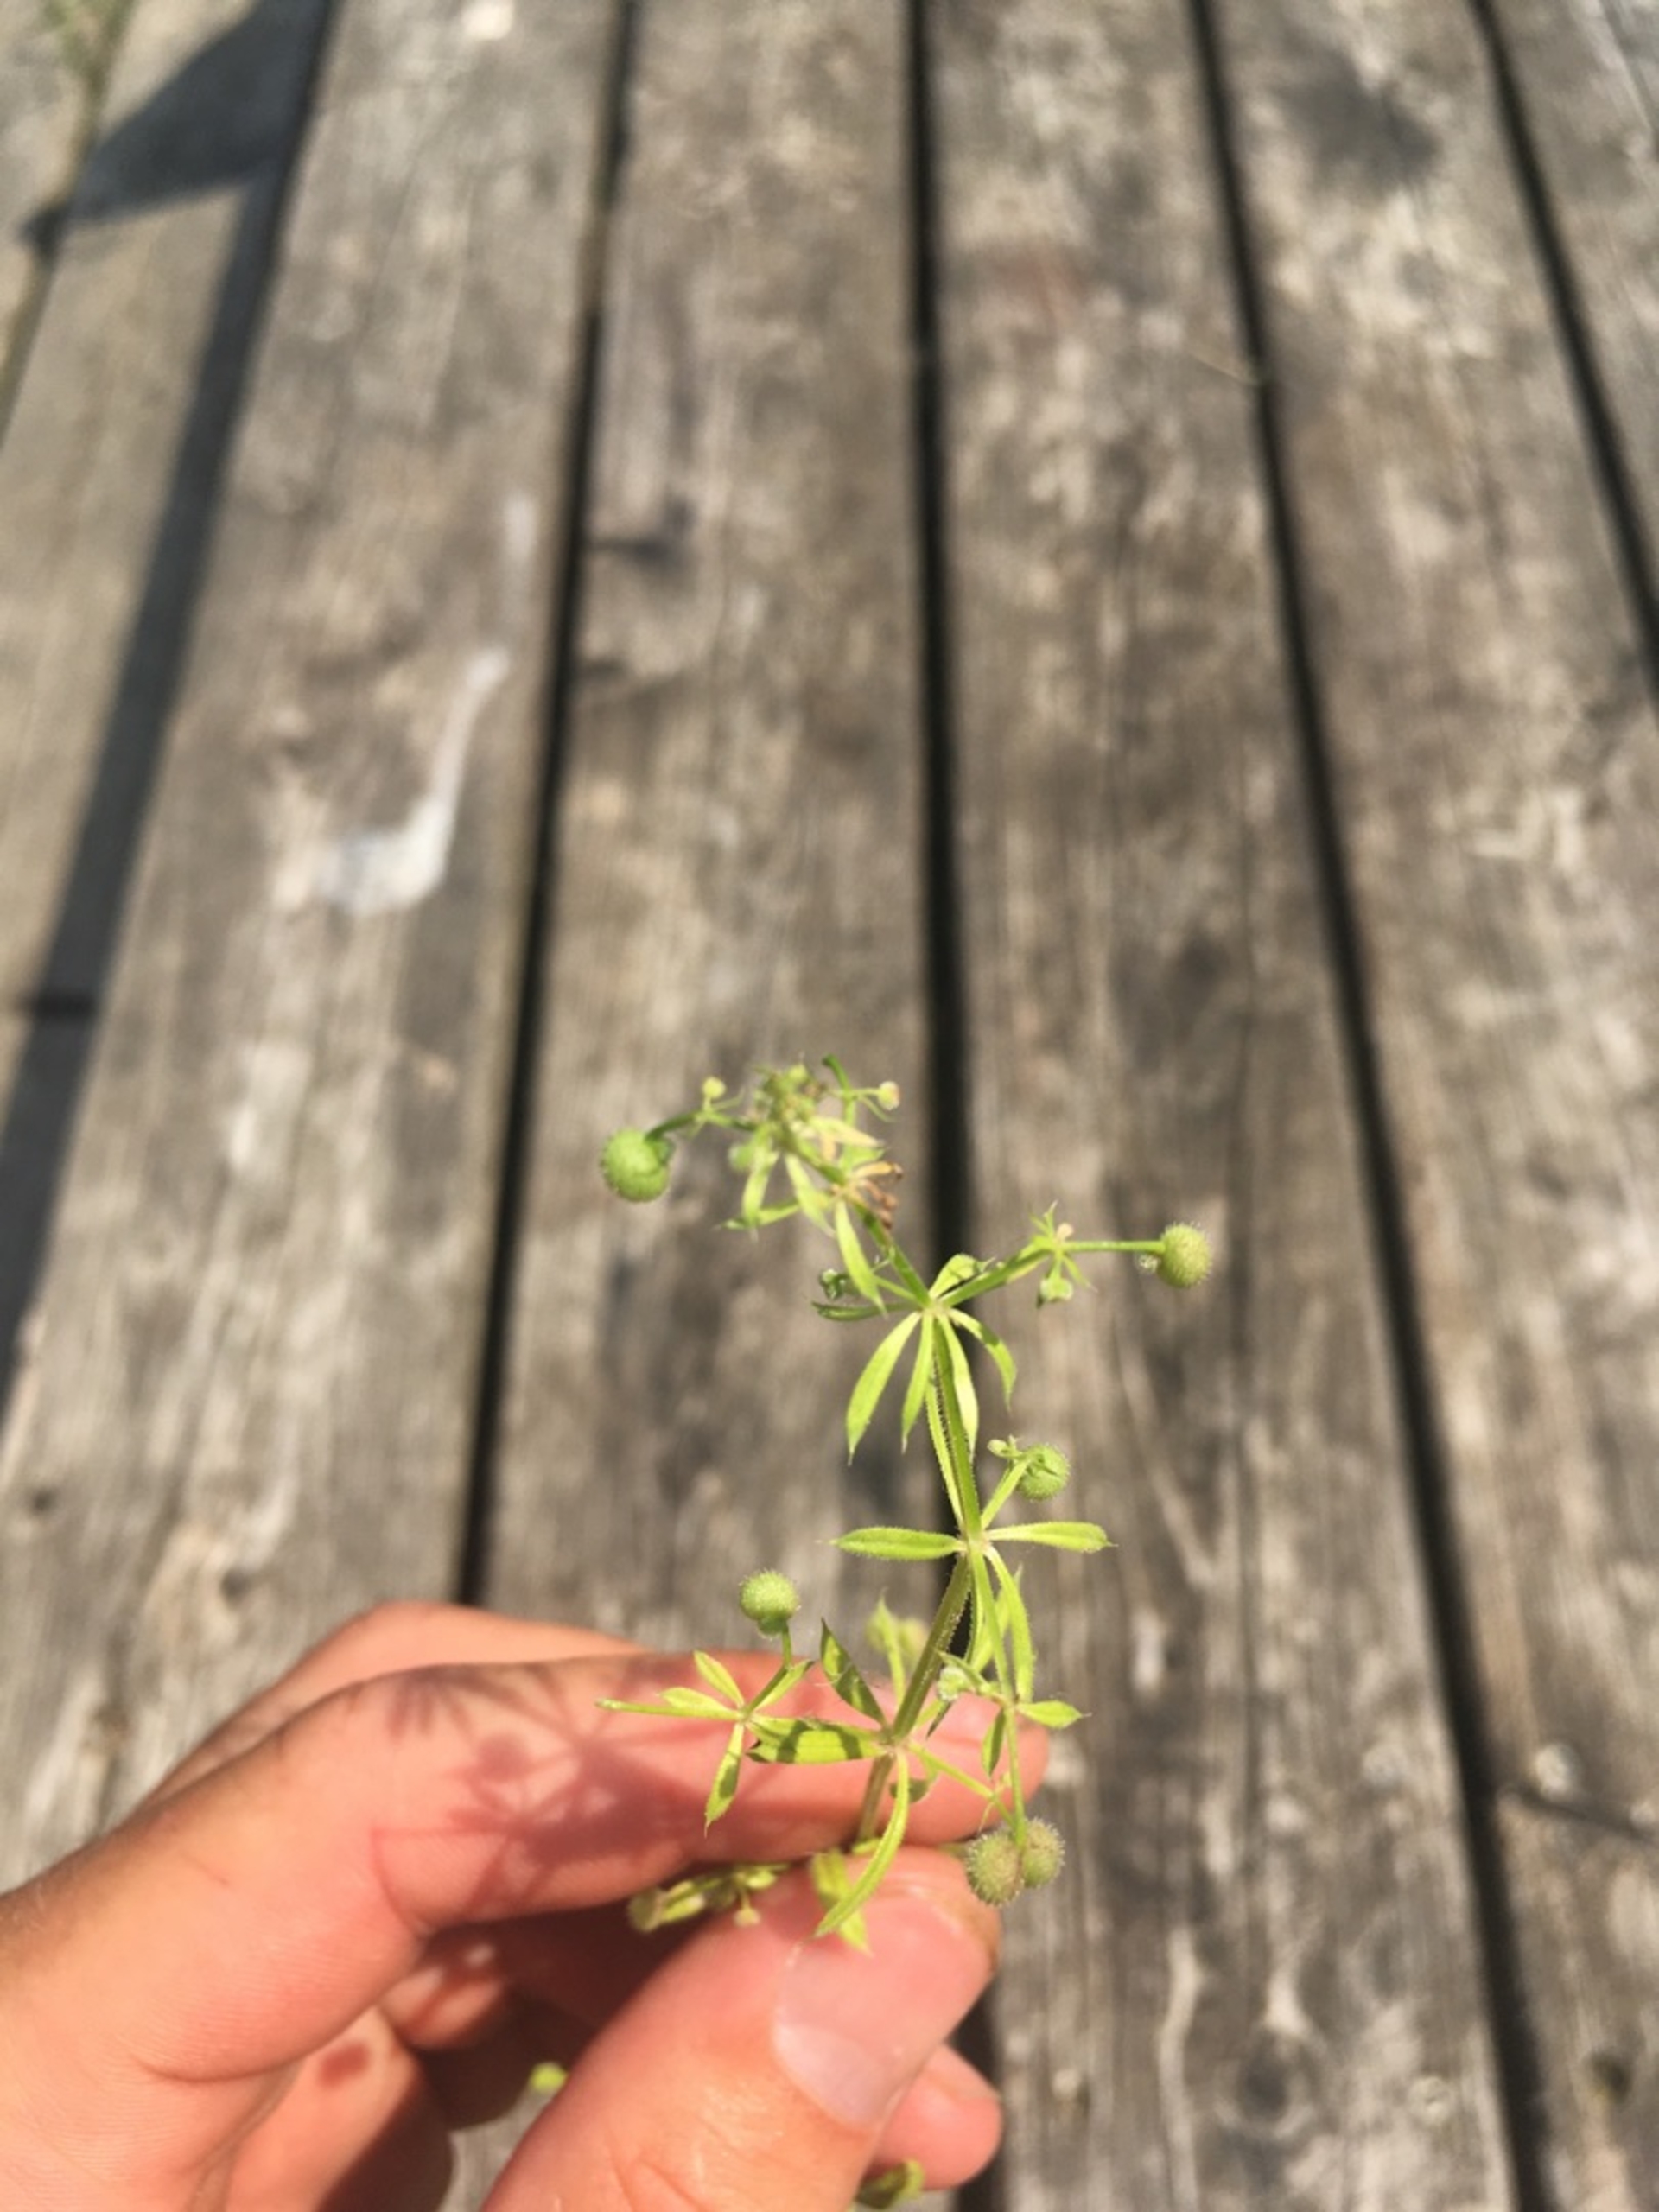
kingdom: Plantae
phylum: Tracheophyta
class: Magnoliopsida
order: Gentianales
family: Rubiaceae
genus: Galium
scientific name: Galium aparine
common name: Burre-snerre
